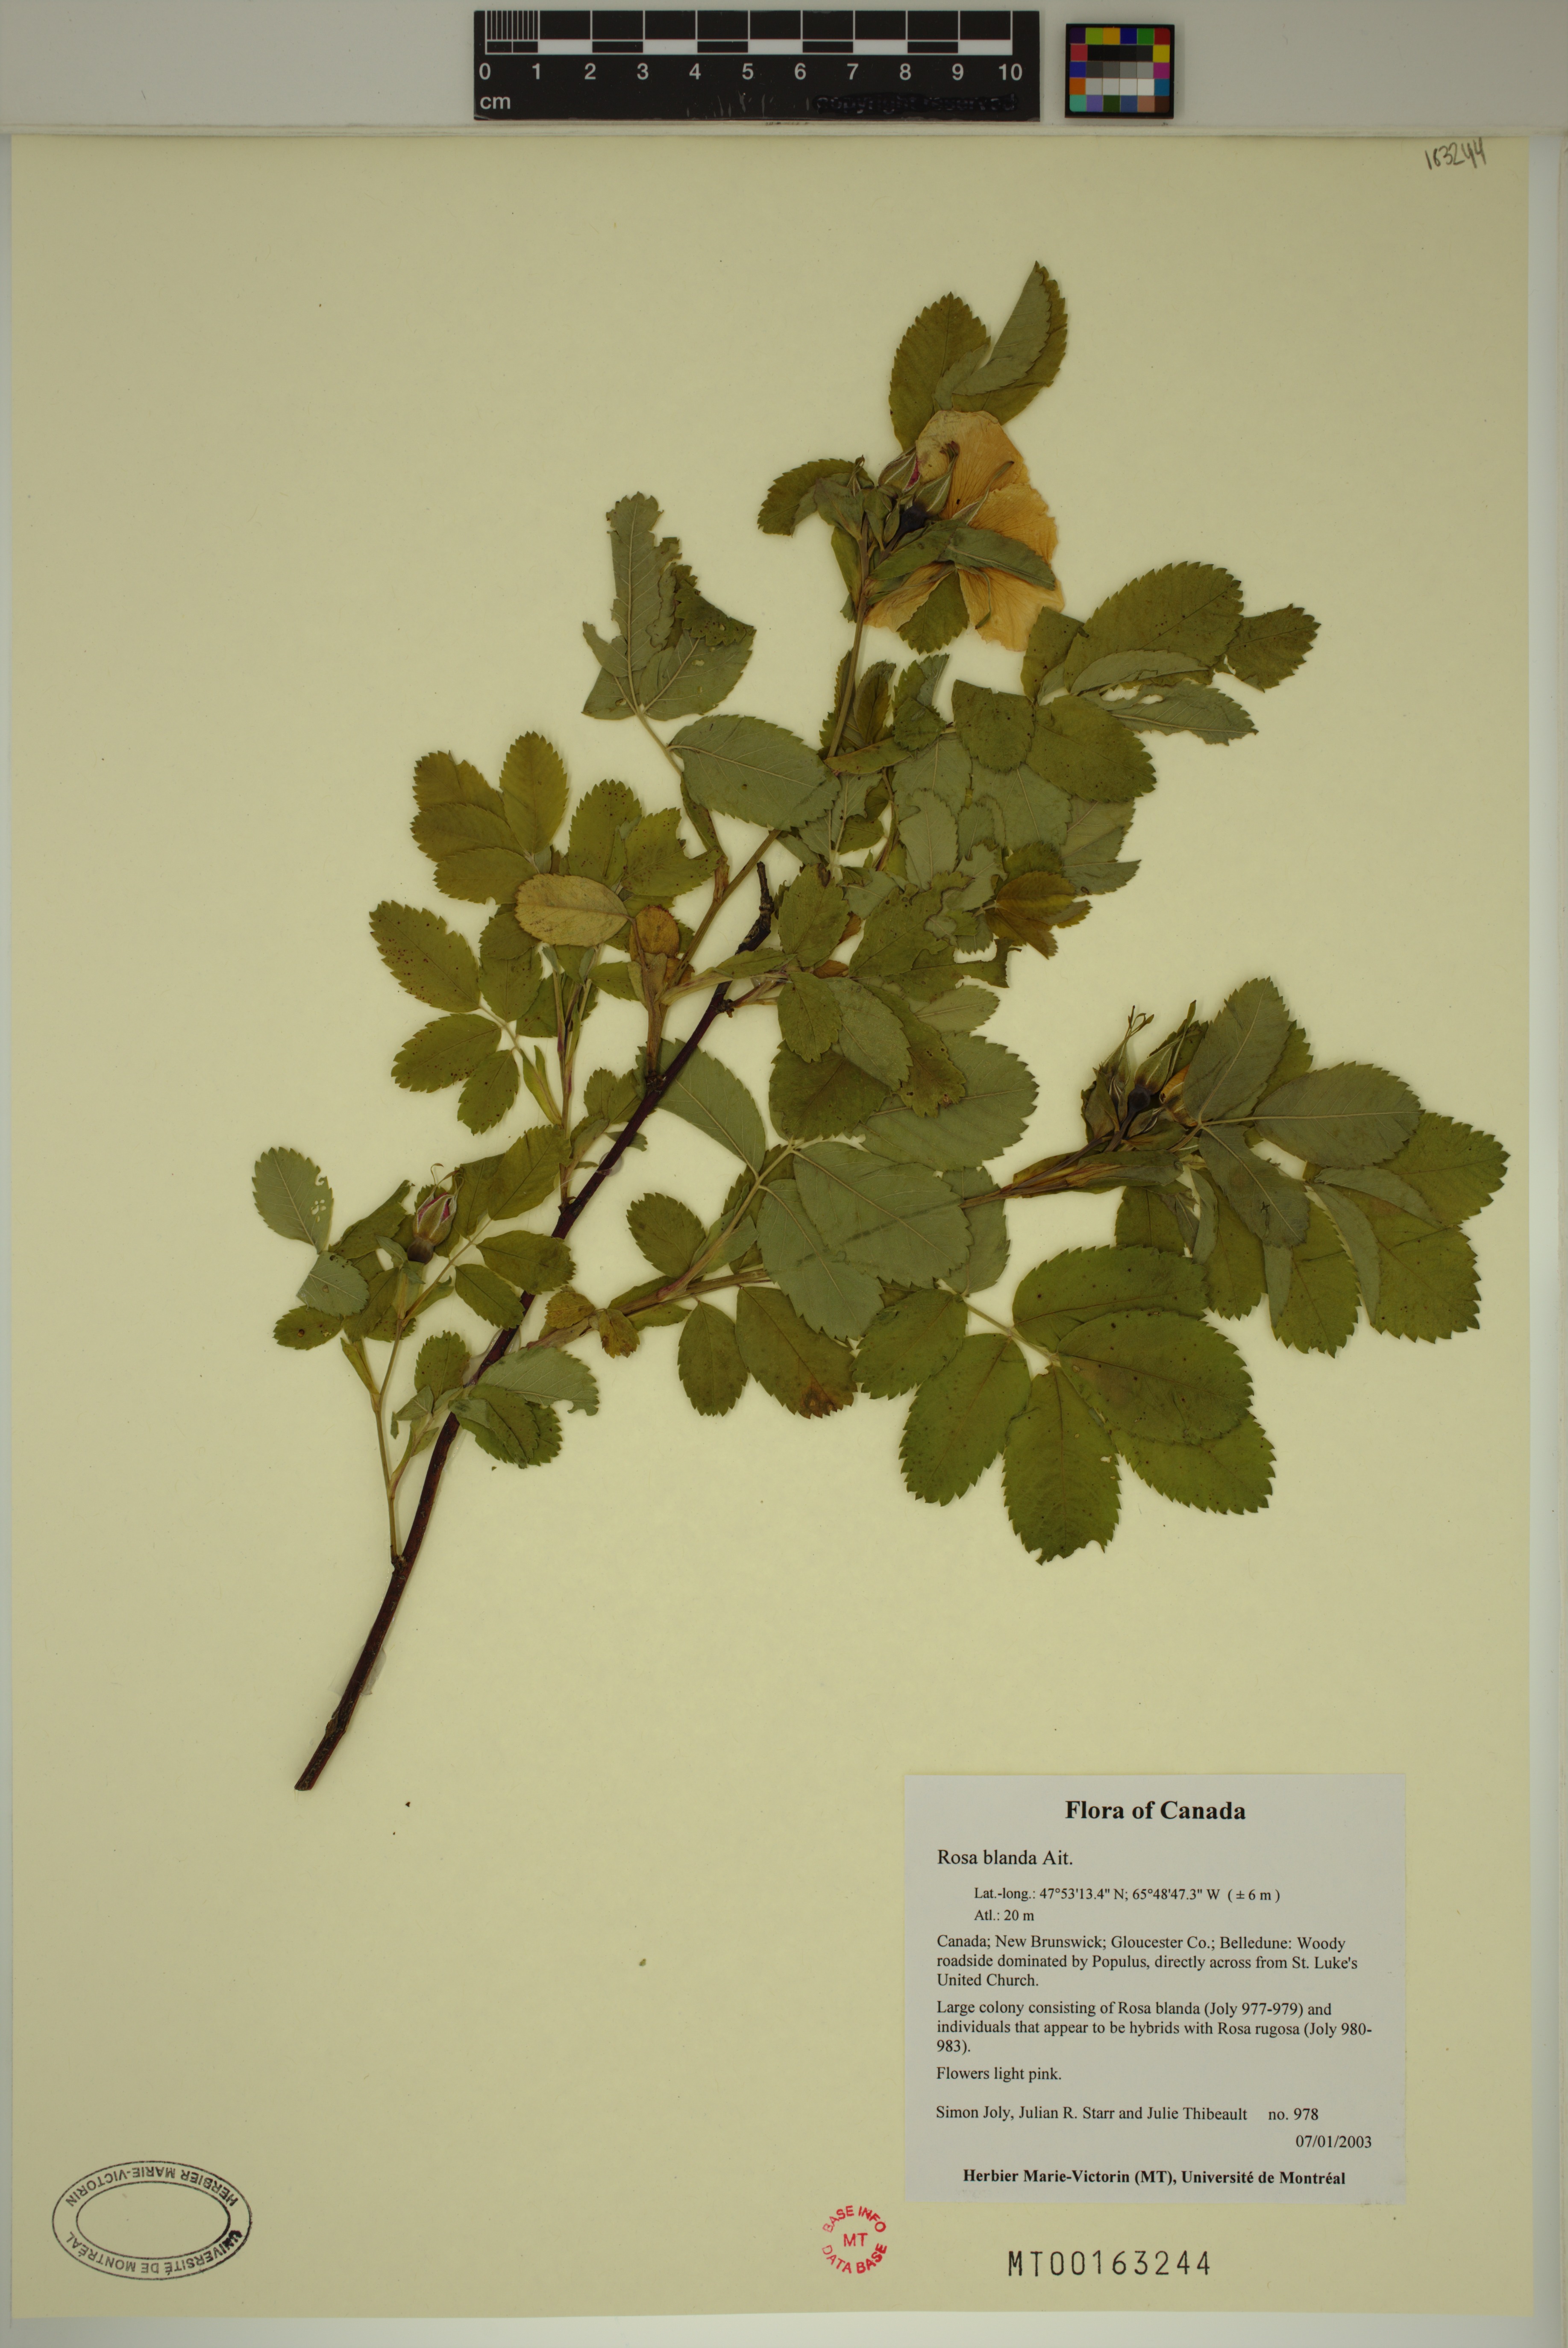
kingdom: Plantae
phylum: Tracheophyta
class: Magnoliopsida
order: Rosales
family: Rosaceae
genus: Rosa
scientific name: Rosa blanda
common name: Smooth rose
